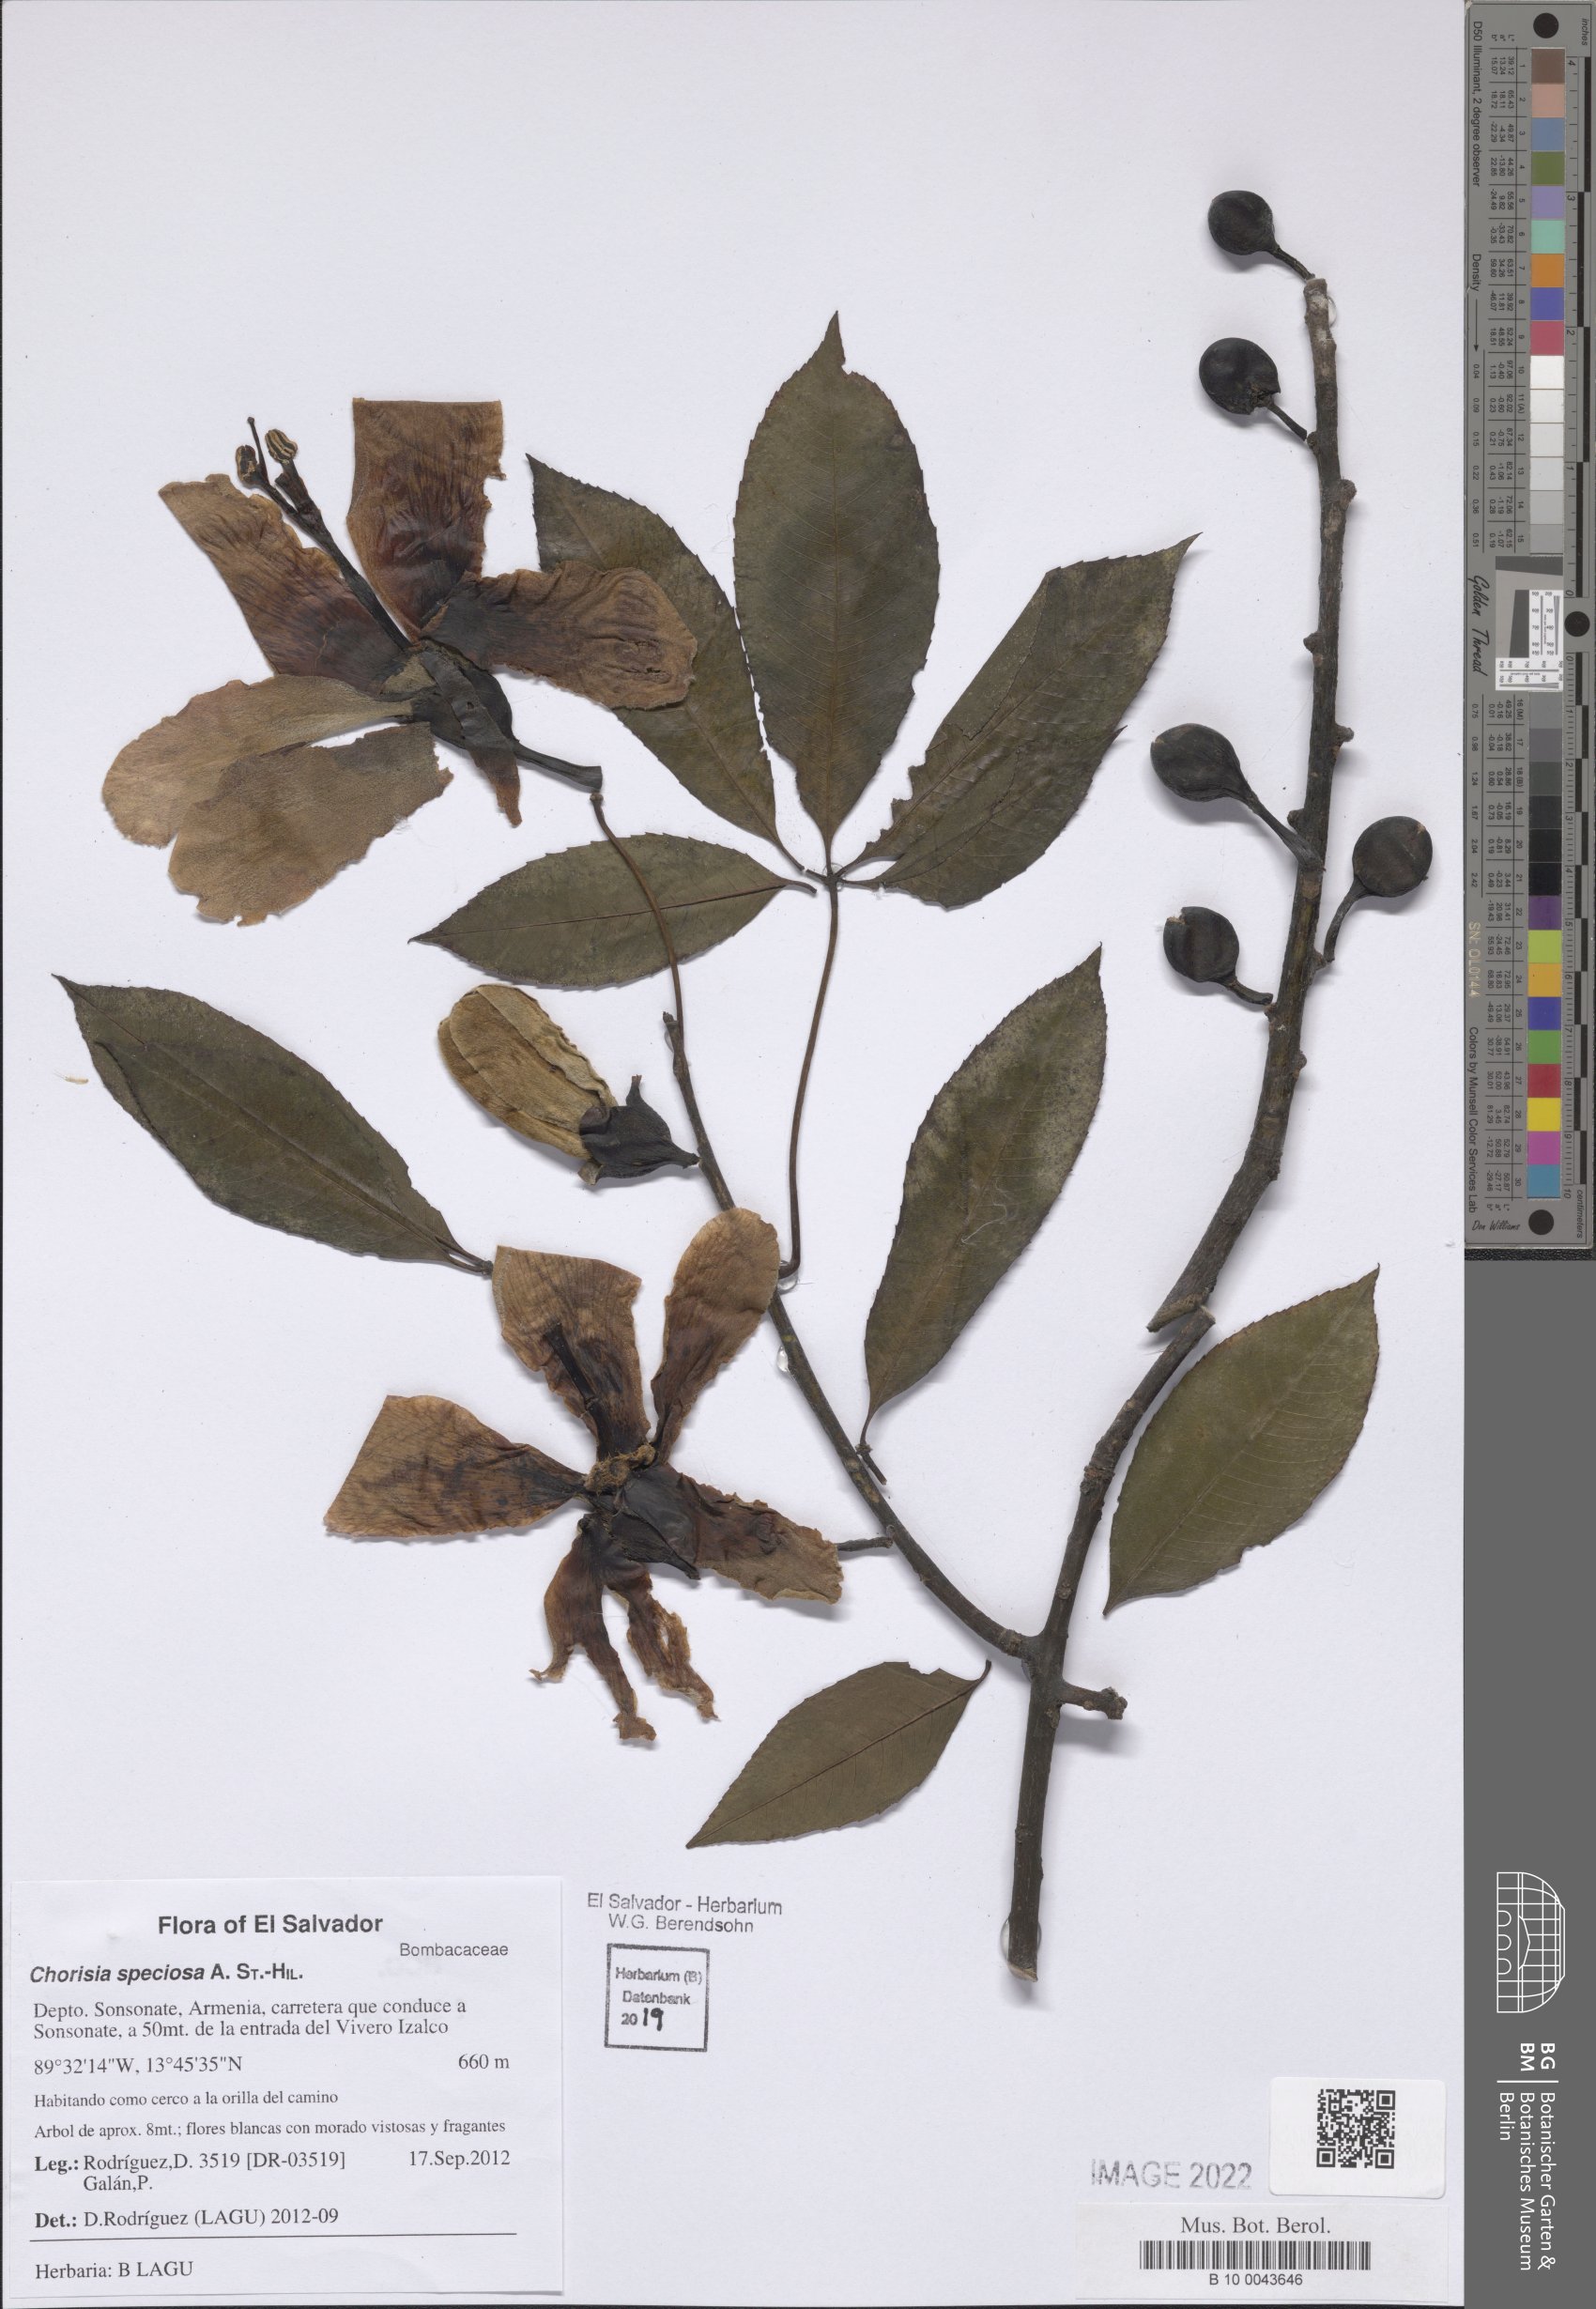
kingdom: Plantae
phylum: Tracheophyta
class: Magnoliopsida
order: Malvales
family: Malvaceae
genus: Ceiba
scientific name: Ceiba speciosa
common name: Silk-floss tree
